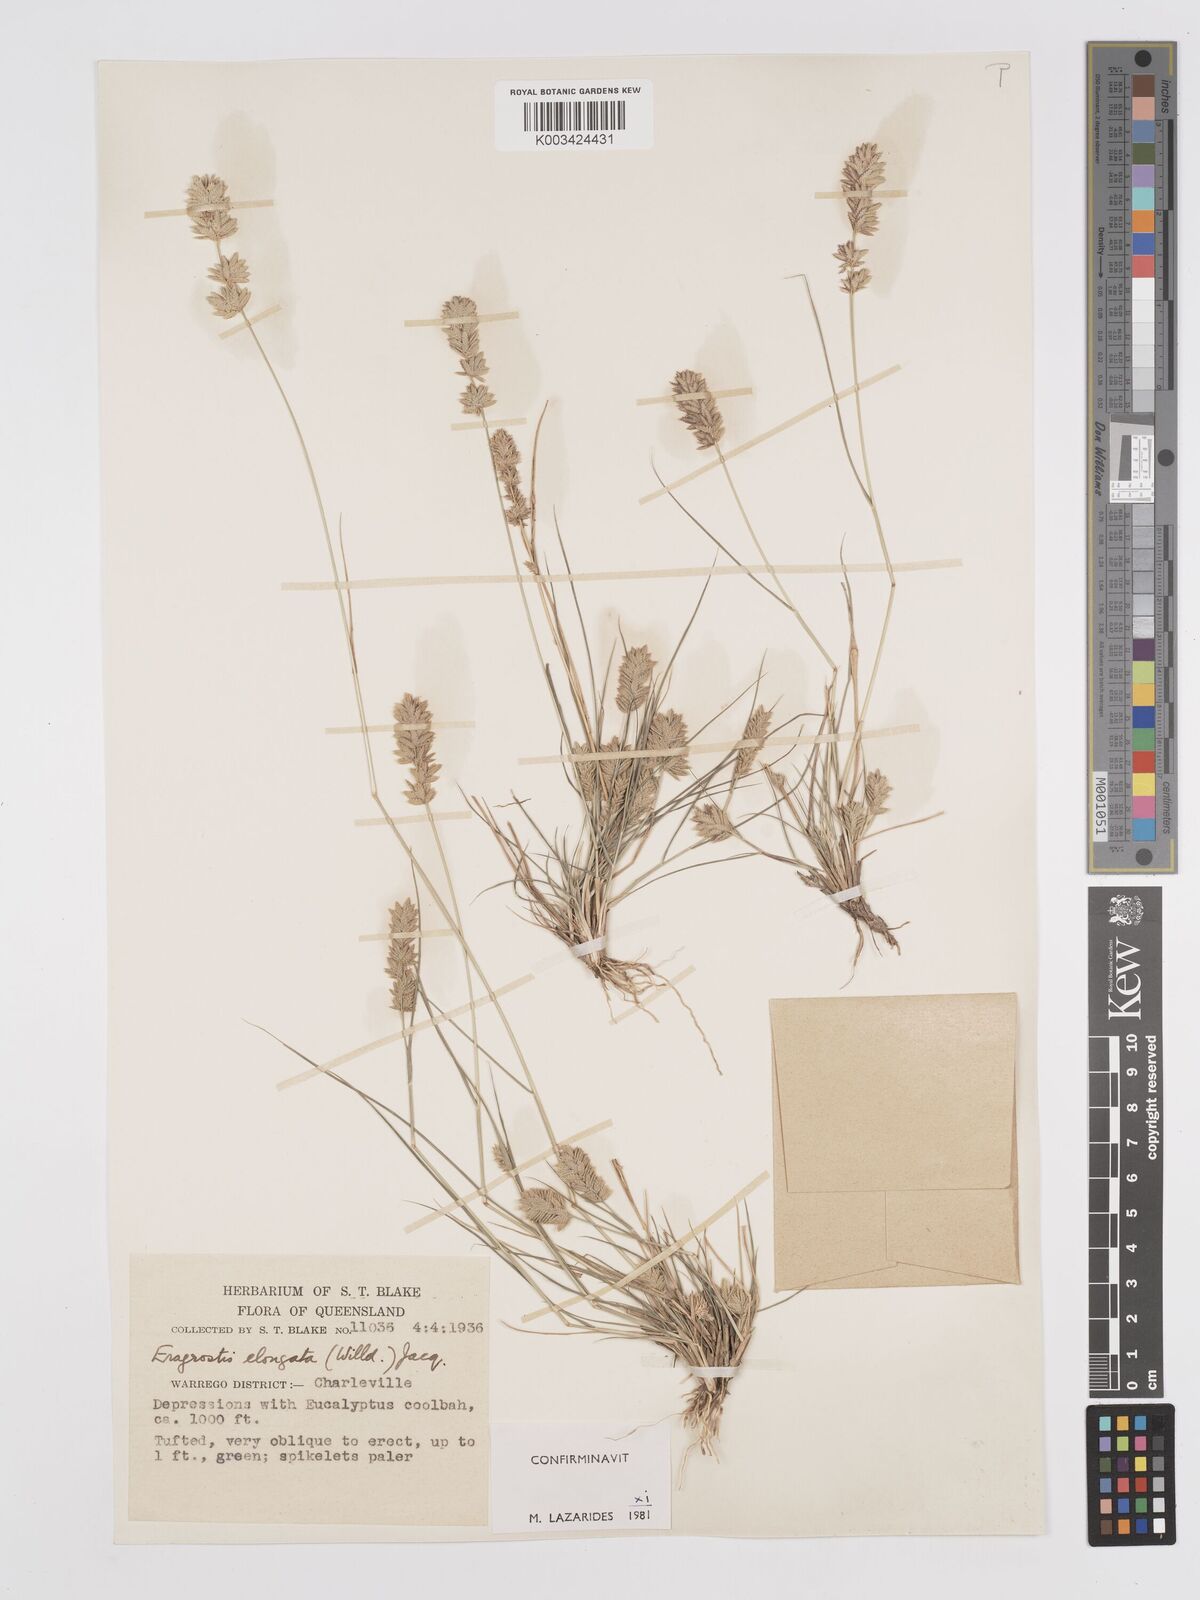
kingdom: Plantae
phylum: Tracheophyta
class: Liliopsida
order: Poales
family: Poaceae
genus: Eragrostis
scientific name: Eragrostis elongata
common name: Long lovegrass
